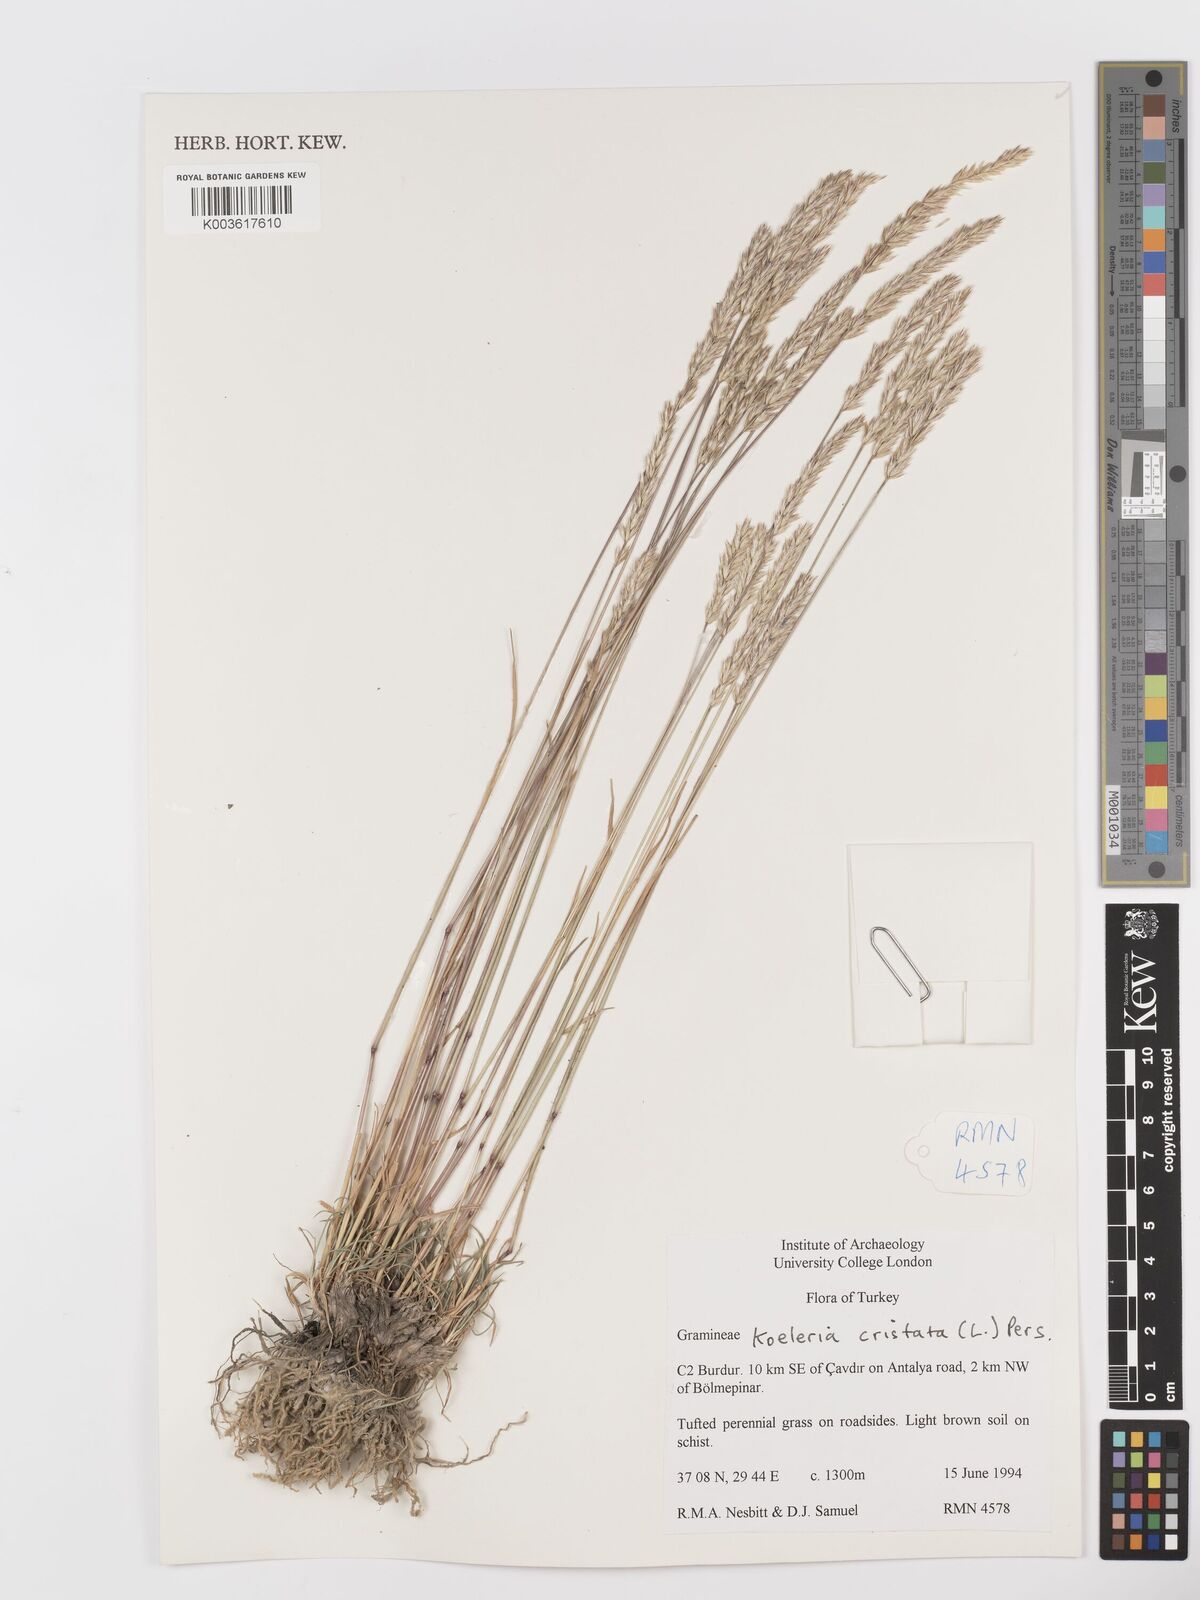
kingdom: Plantae
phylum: Tracheophyta
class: Liliopsida
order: Poales
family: Poaceae
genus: Koeleria
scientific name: Koeleria macrantha
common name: Crested hair-grass
